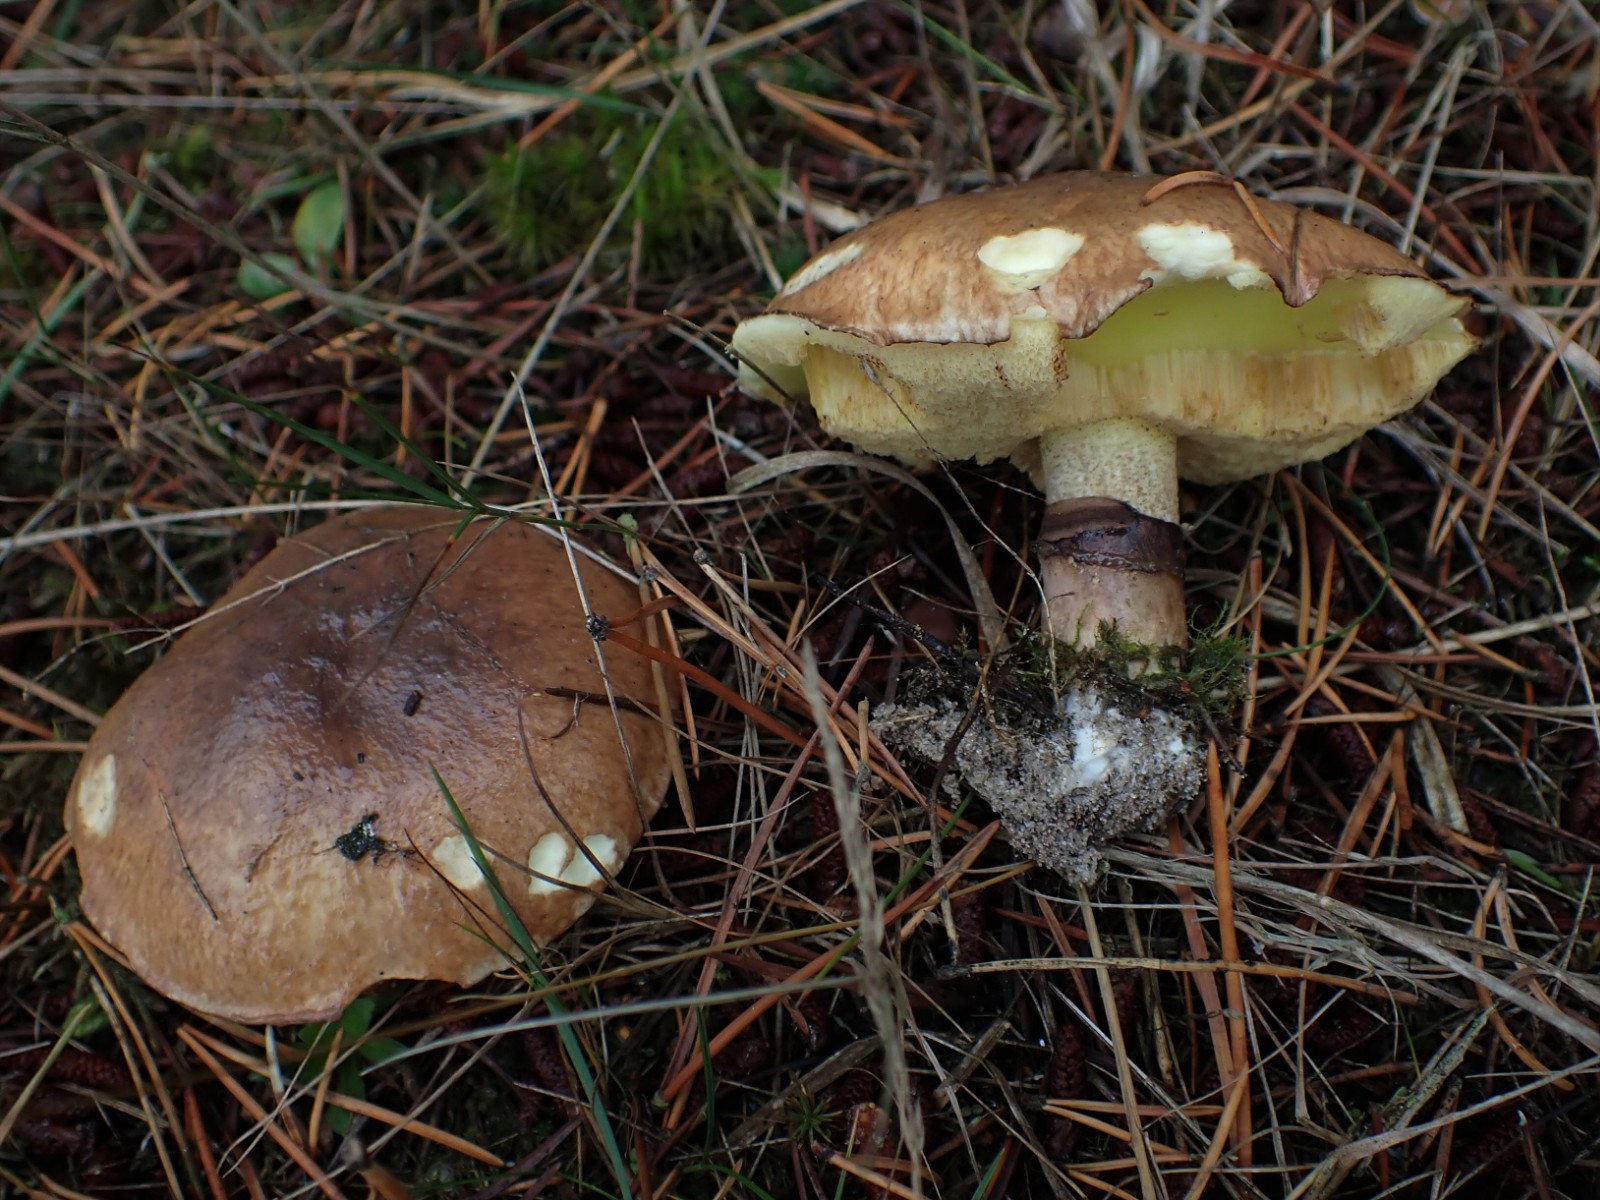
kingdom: Fungi
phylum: Basidiomycota
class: Agaricomycetes
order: Boletales
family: Suillaceae
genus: Suillus
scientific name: Suillus luteus
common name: brungul slimrørhat
